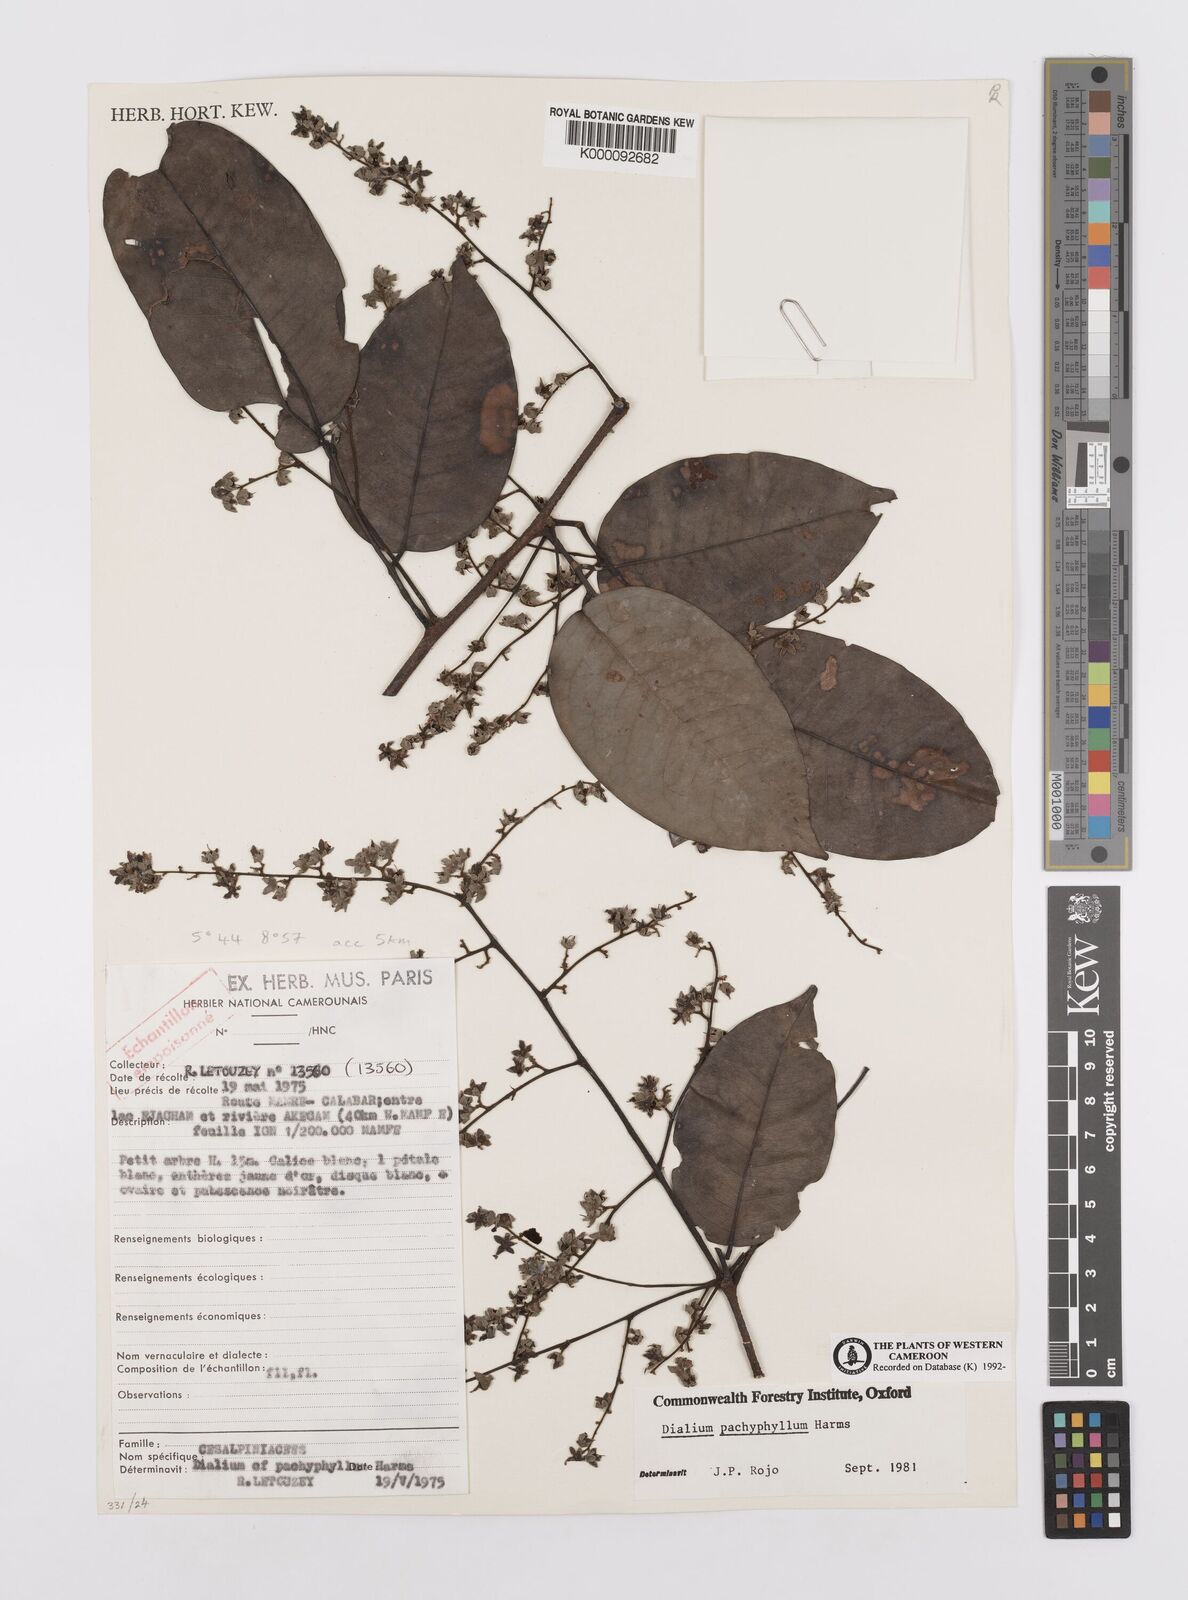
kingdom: Plantae
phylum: Tracheophyta
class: Magnoliopsida
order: Fabales
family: Fabaceae
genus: Dialium
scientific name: Dialium guineense
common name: Sierra leone-tamarind
